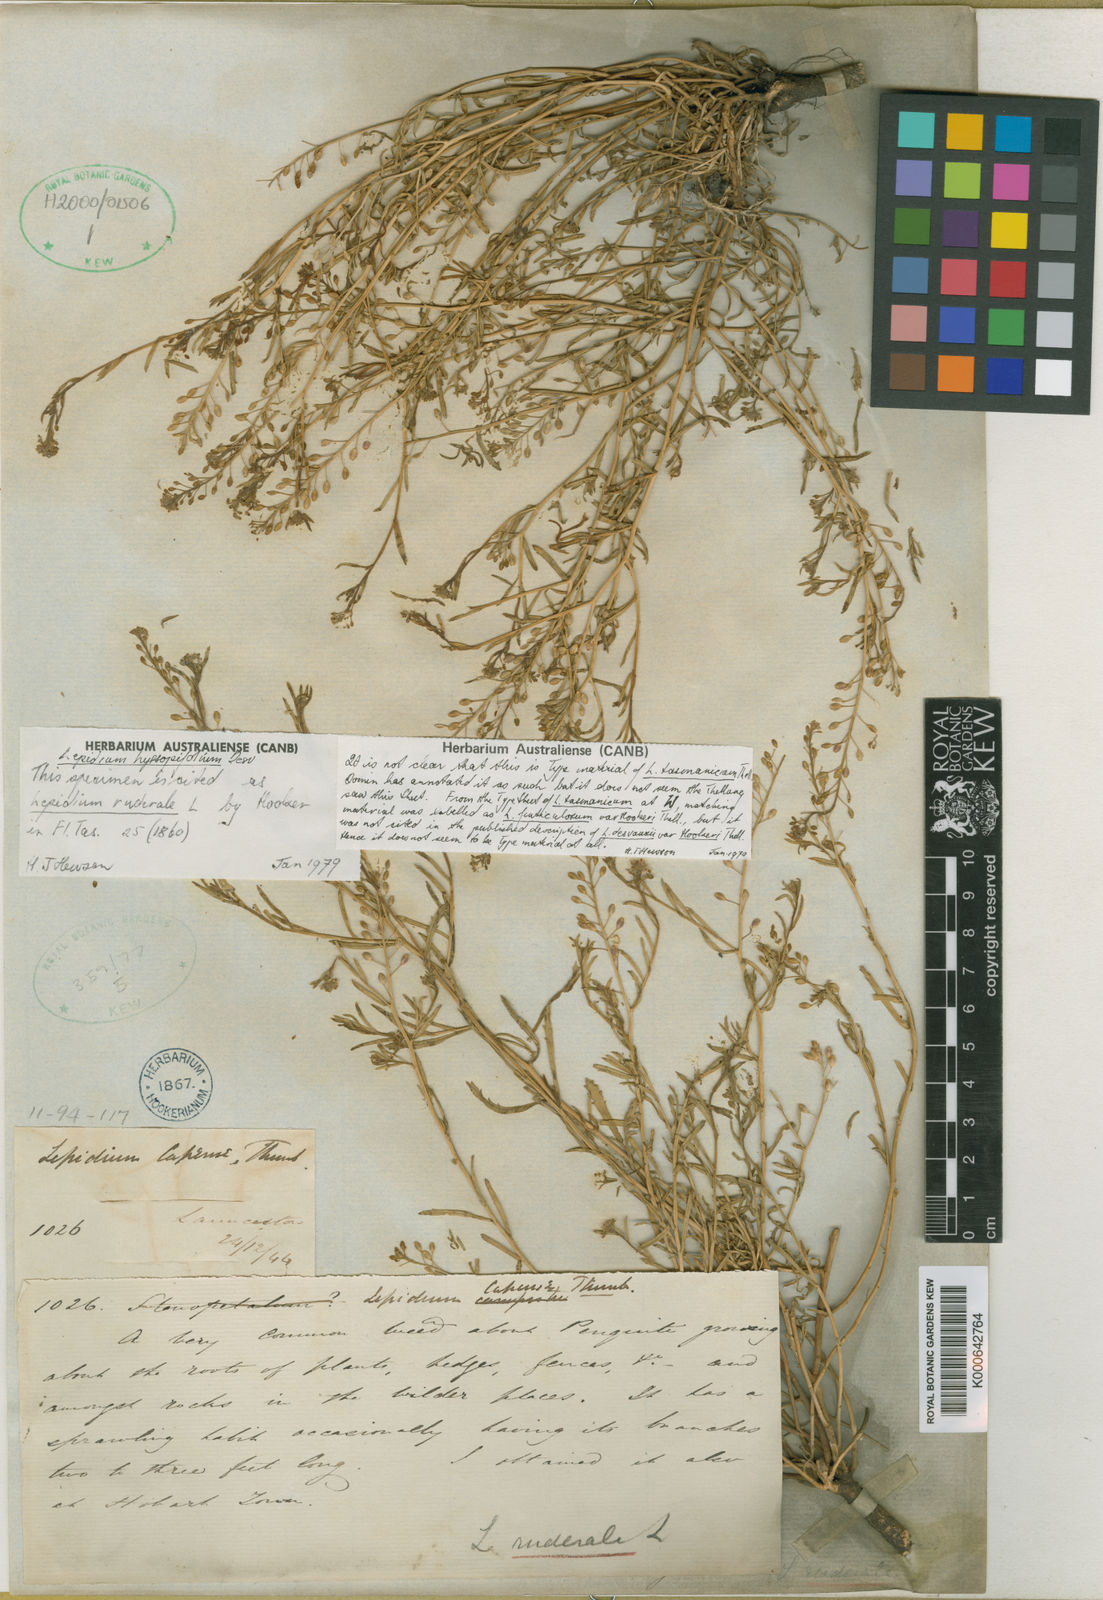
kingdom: Plantae
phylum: Tracheophyta
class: Magnoliopsida
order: Brassicales
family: Brassicaceae
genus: Lepidium
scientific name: Lepidium africanum
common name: African pepperwort
